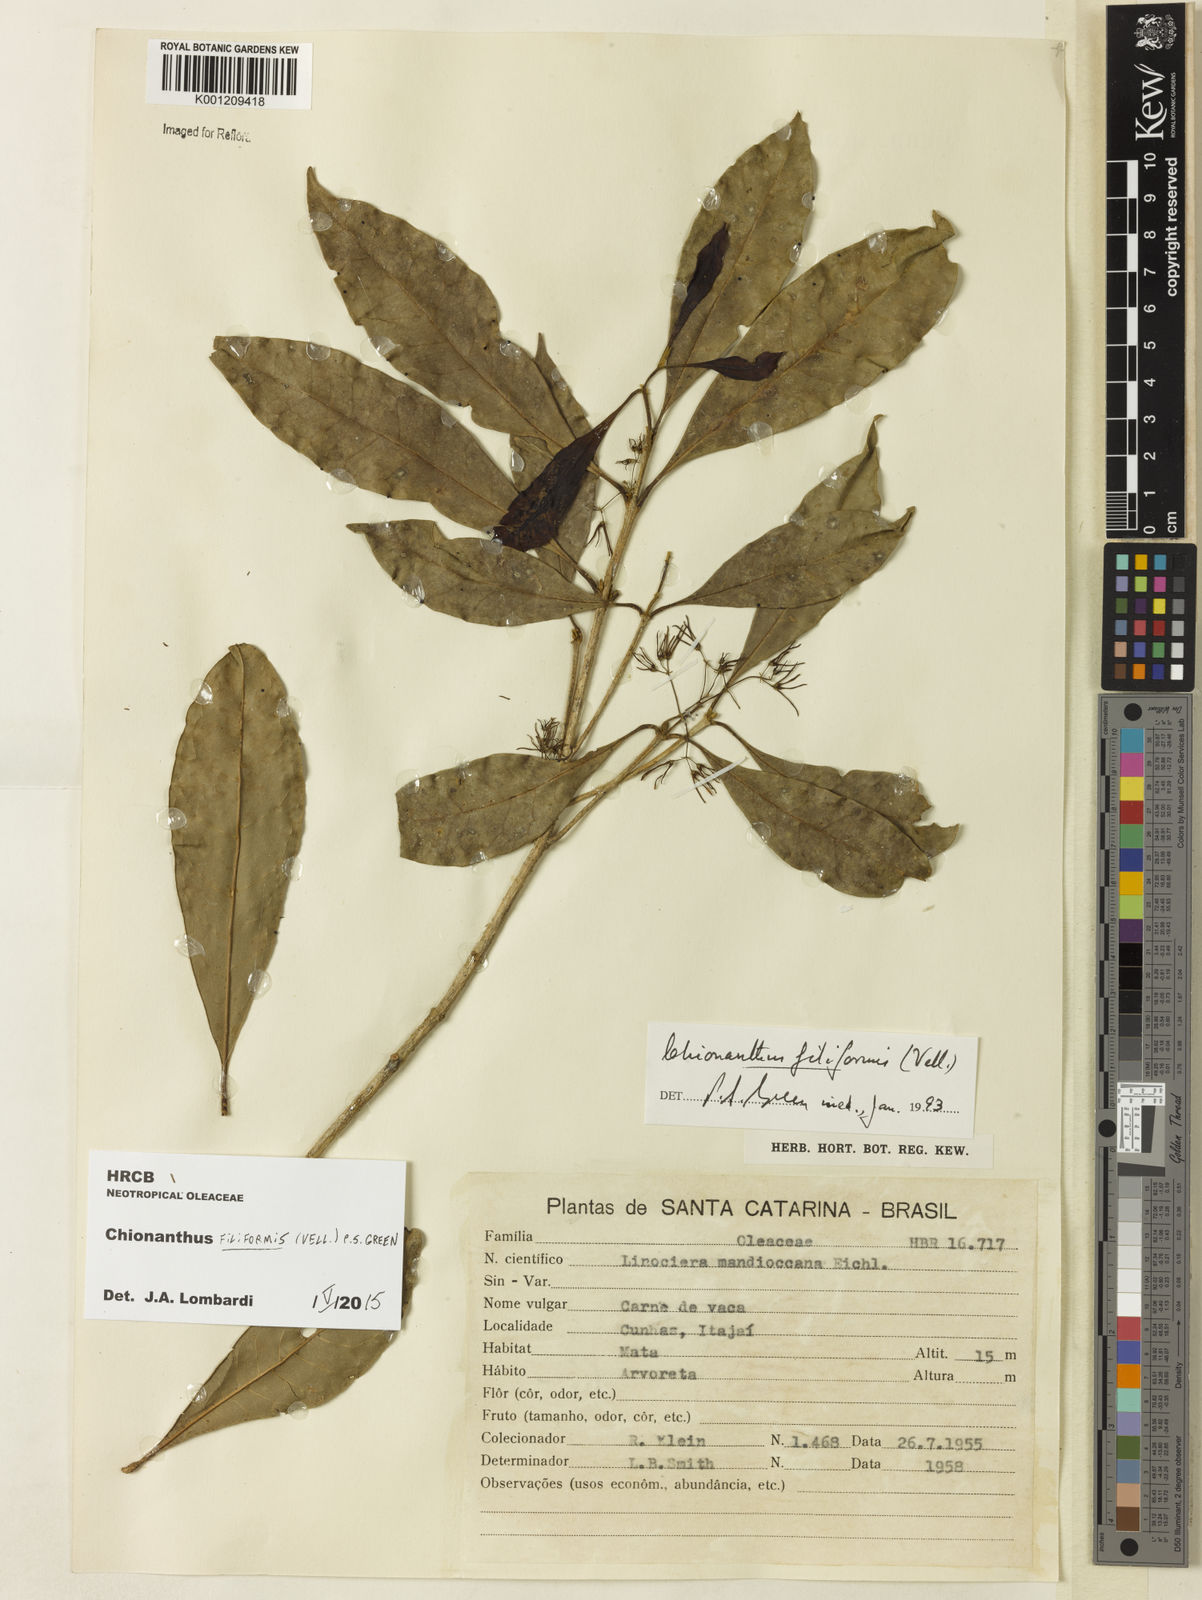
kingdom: Plantae
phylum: Tracheophyta
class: Magnoliopsida
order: Lamiales
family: Oleaceae
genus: Chionanthus
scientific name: Chionanthus filiformis
